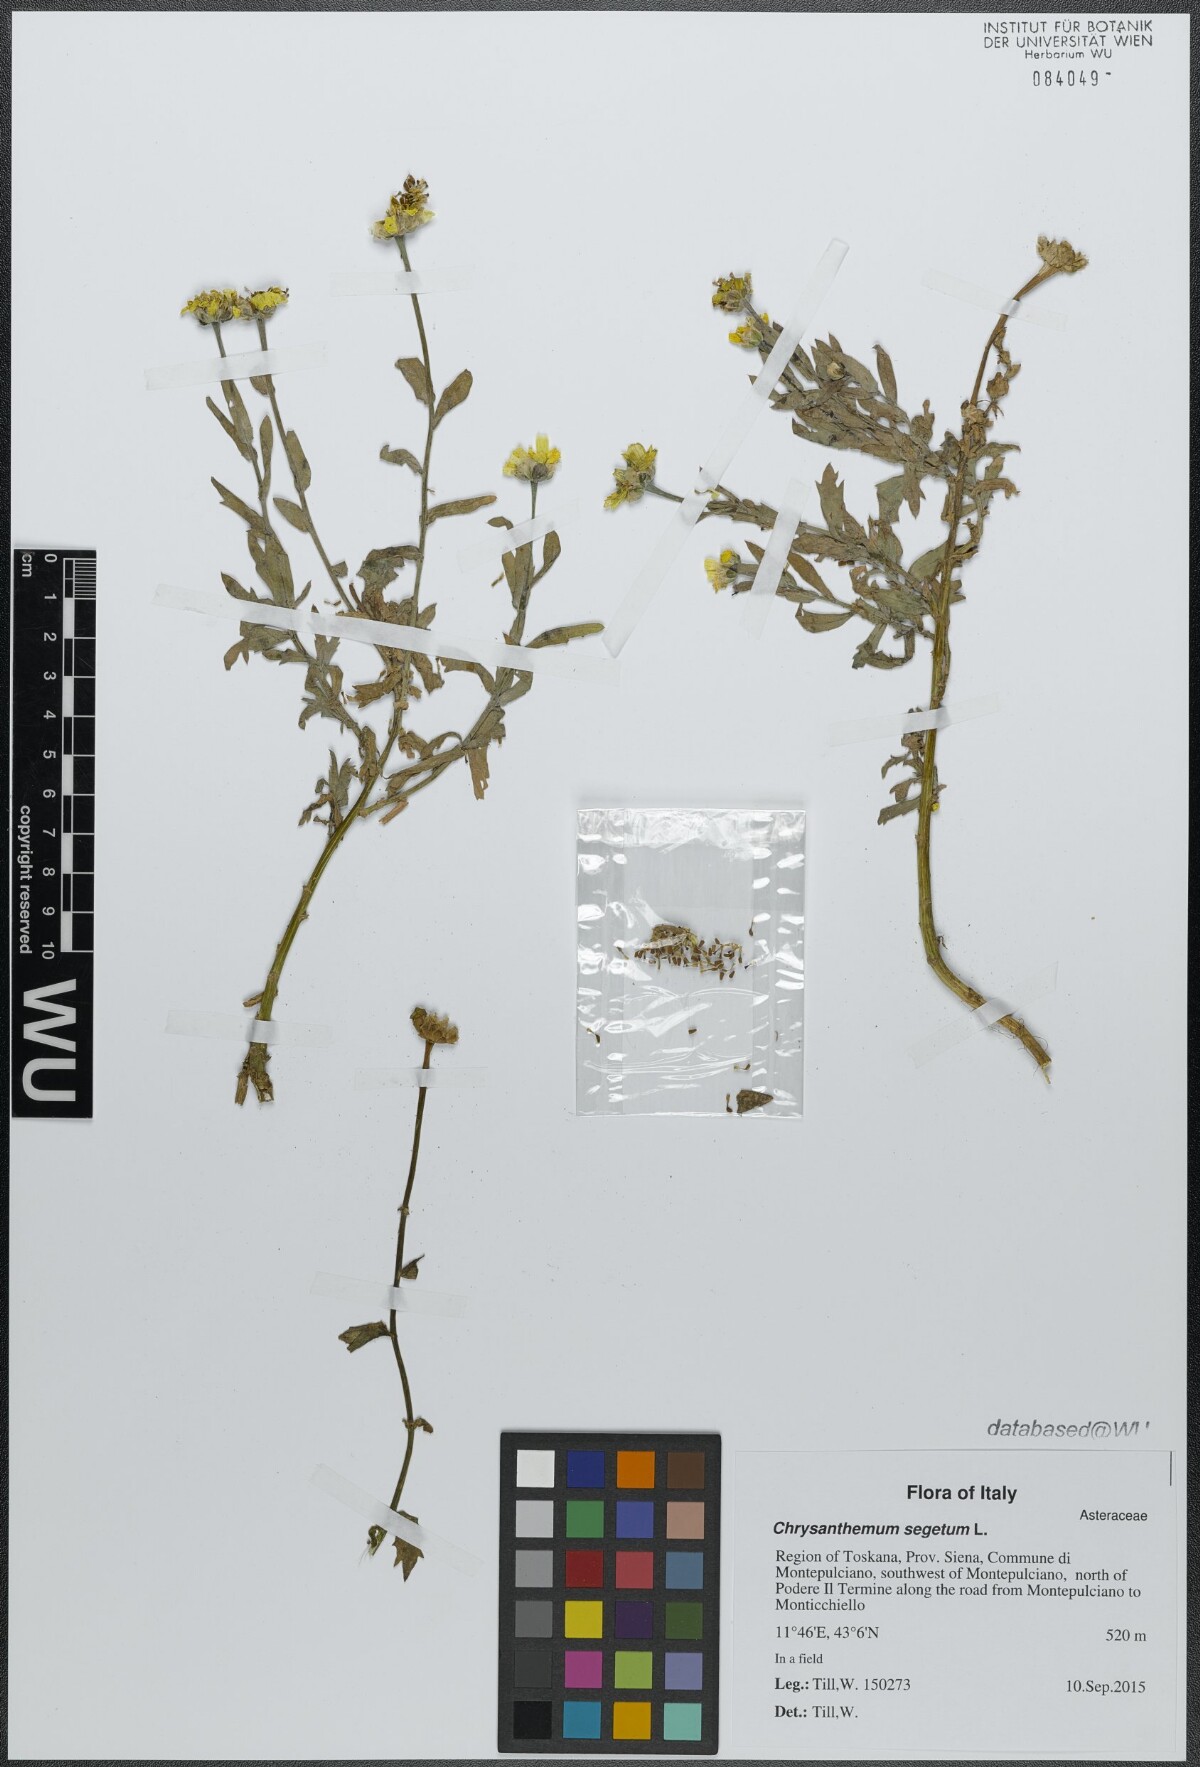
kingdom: Plantae
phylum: Tracheophyta
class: Magnoliopsida
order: Asterales
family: Asteraceae
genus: Glebionis
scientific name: Glebionis segetum
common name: Corndaisy
